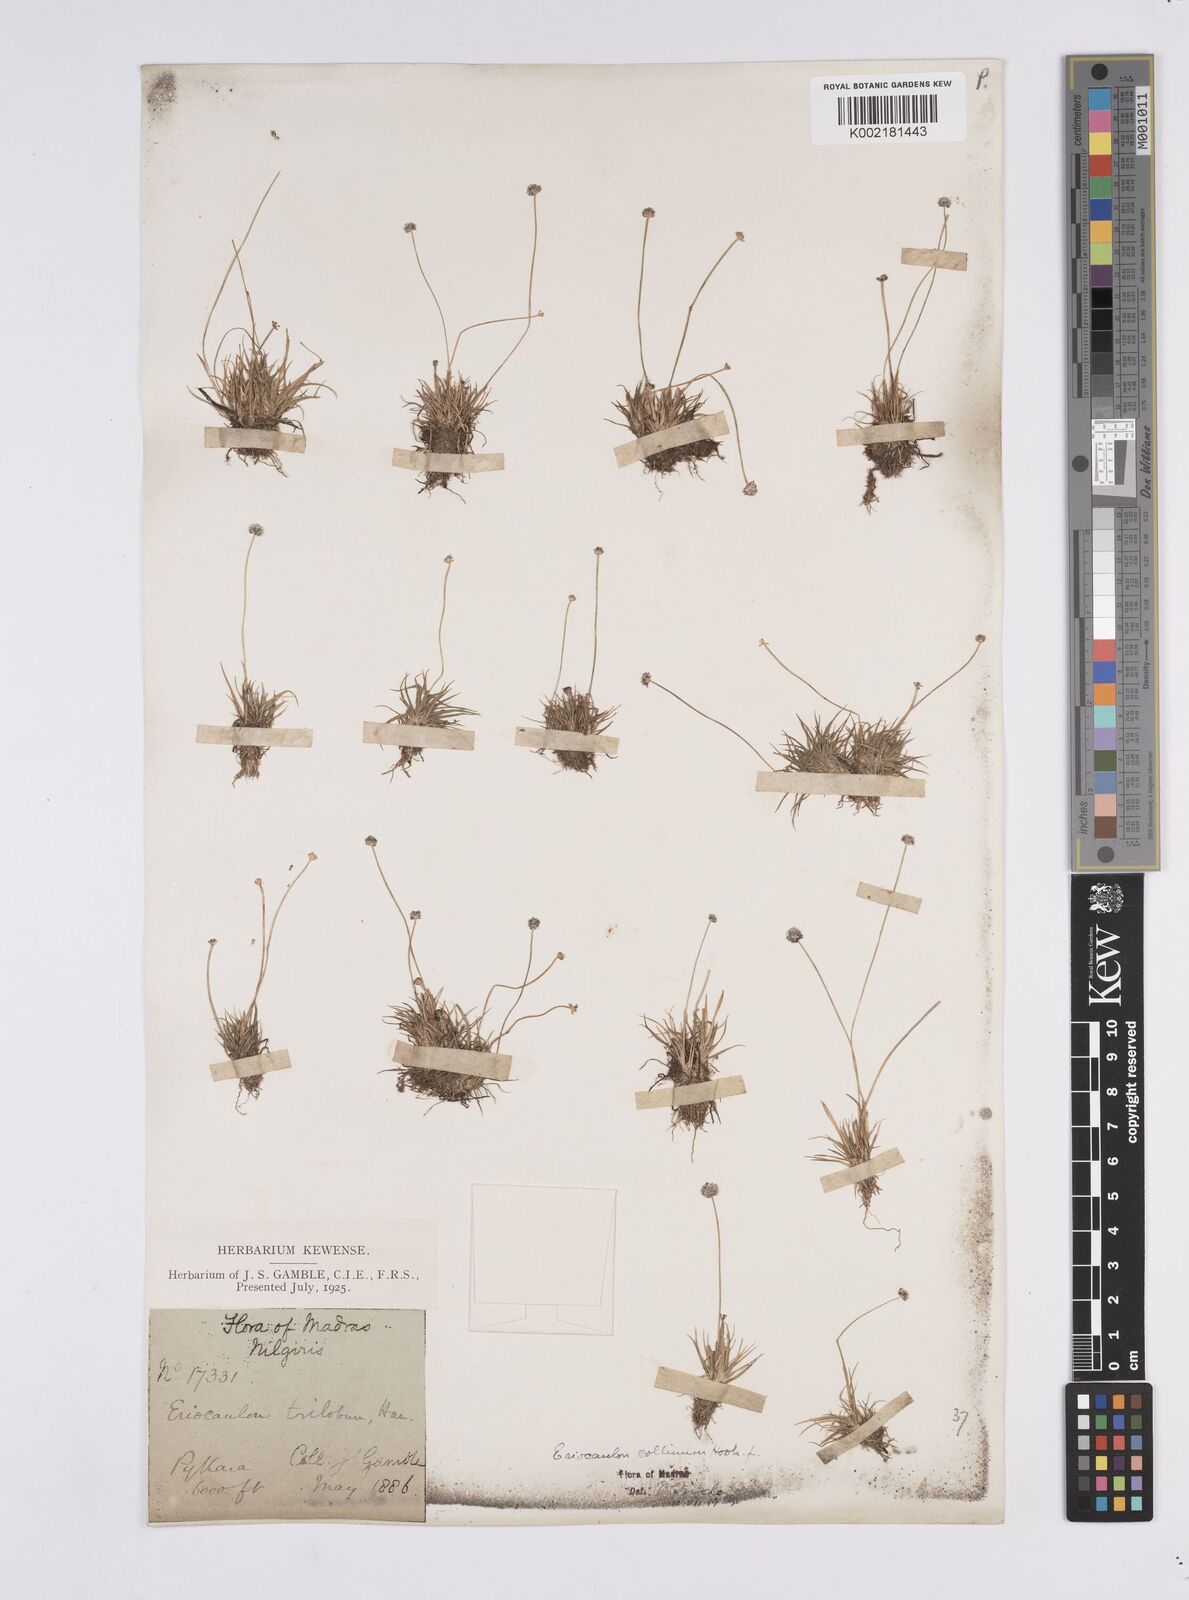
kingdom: Plantae
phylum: Tracheophyta
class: Liliopsida
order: Poales
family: Eriocaulaceae
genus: Eriocaulon
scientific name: Eriocaulon odoratum
